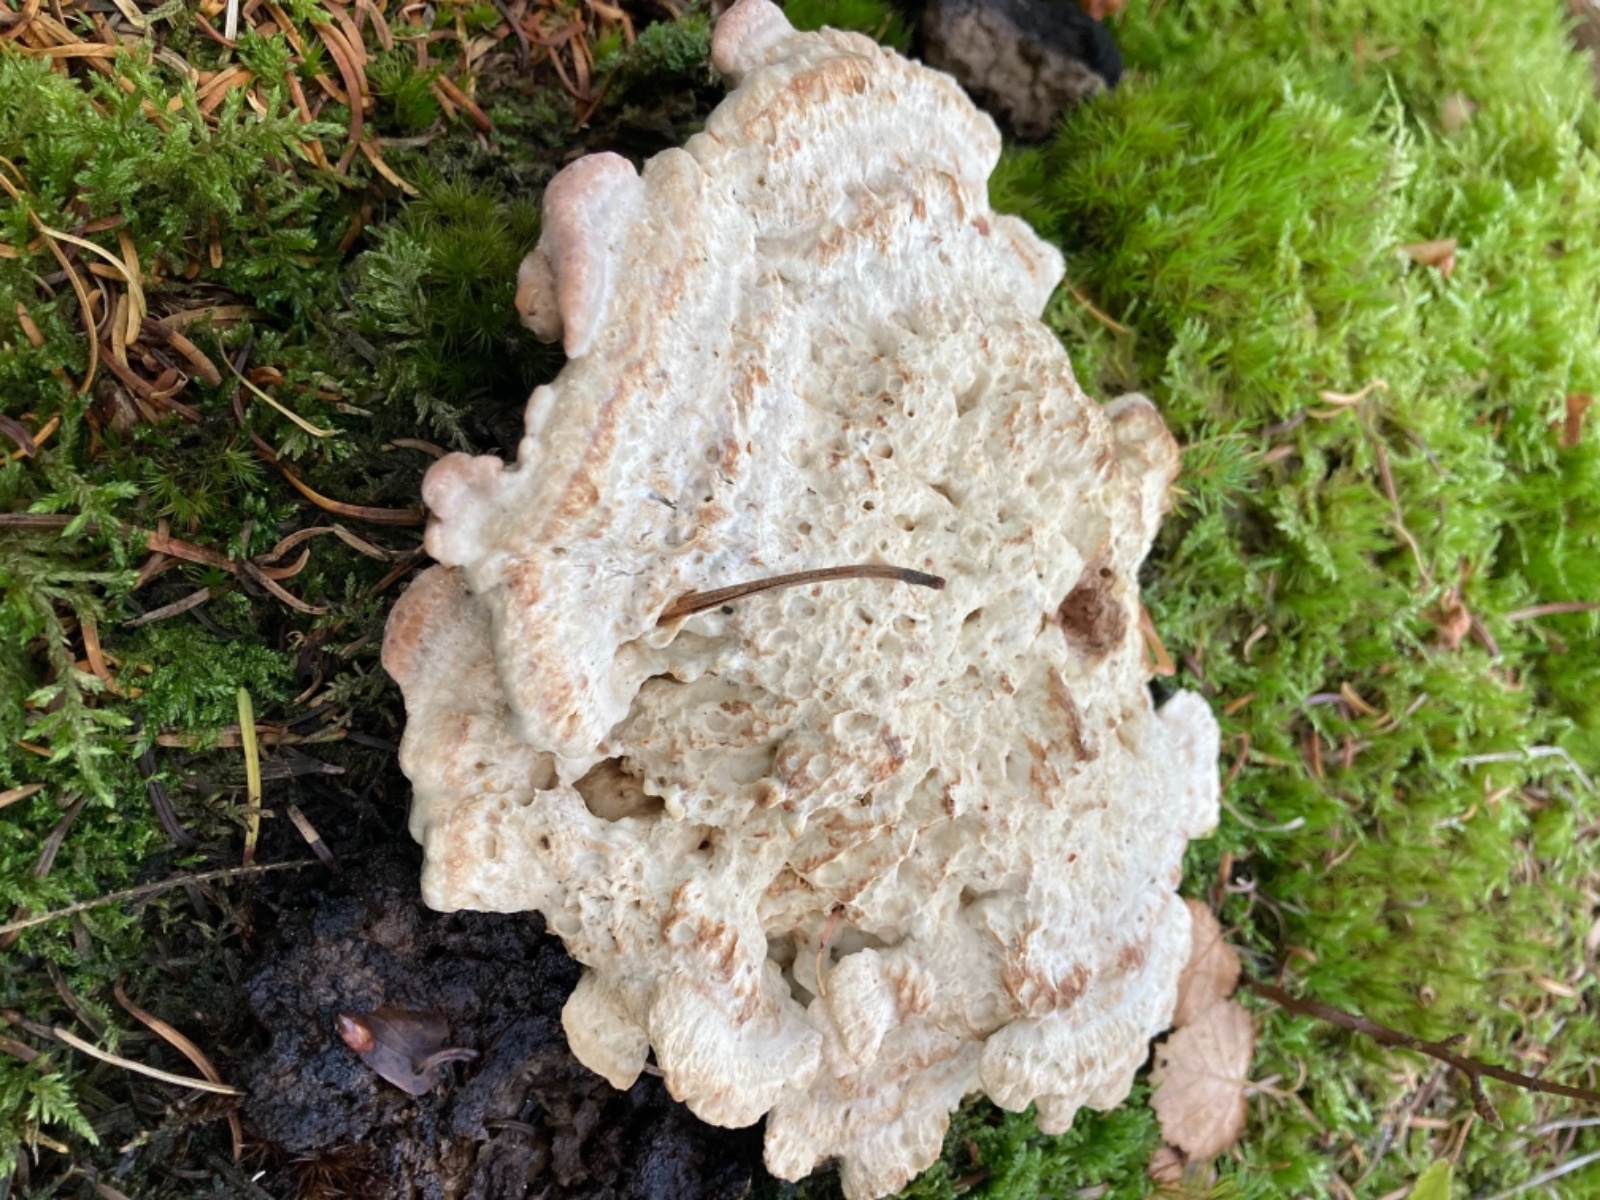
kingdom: Fungi
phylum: Basidiomycota
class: Agaricomycetes
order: Polyporales
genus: Calcipostia
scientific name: Calcipostia guttulata
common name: dråbe-kødporesvamp
